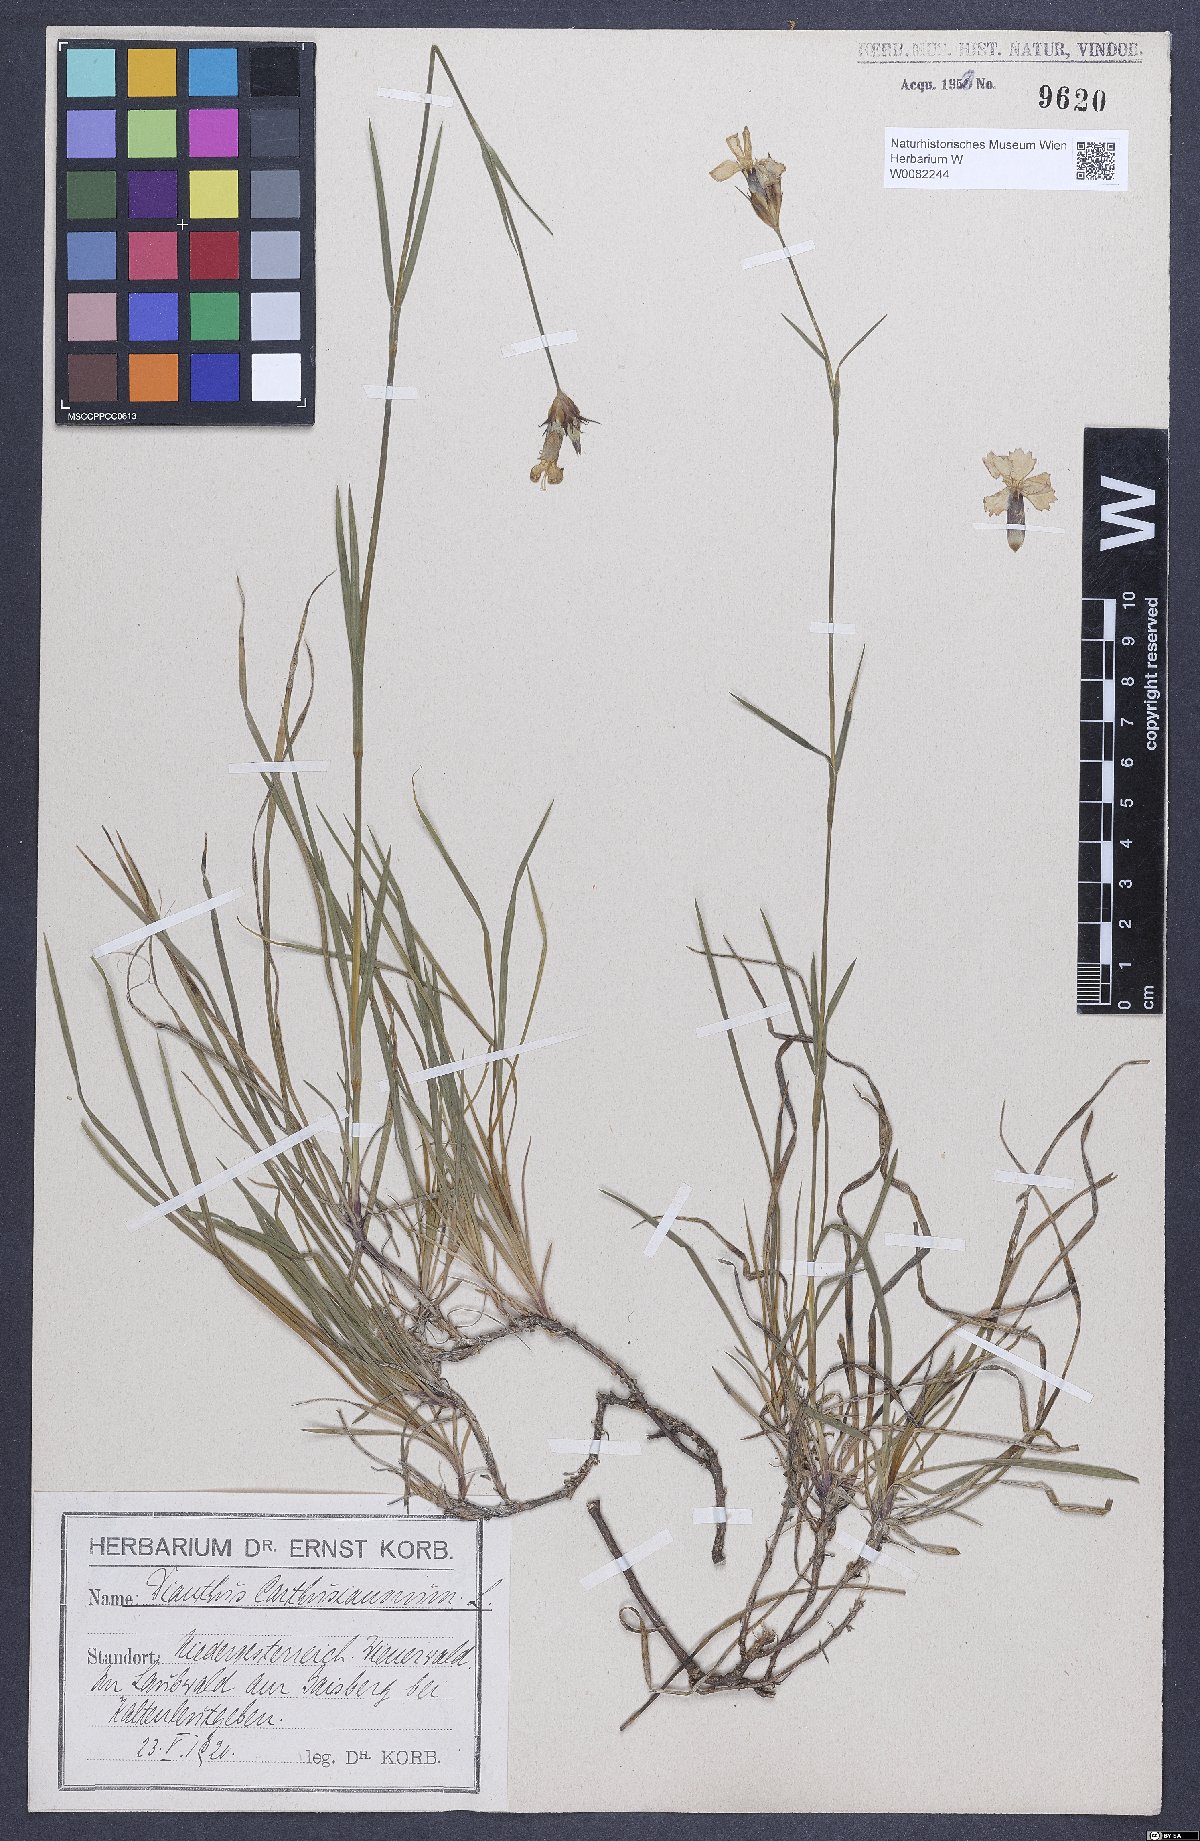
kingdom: Plantae
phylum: Tracheophyta
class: Magnoliopsida
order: Caryophyllales
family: Caryophyllaceae
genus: Dianthus
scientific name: Dianthus carthusianorum
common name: Carthusian pink
